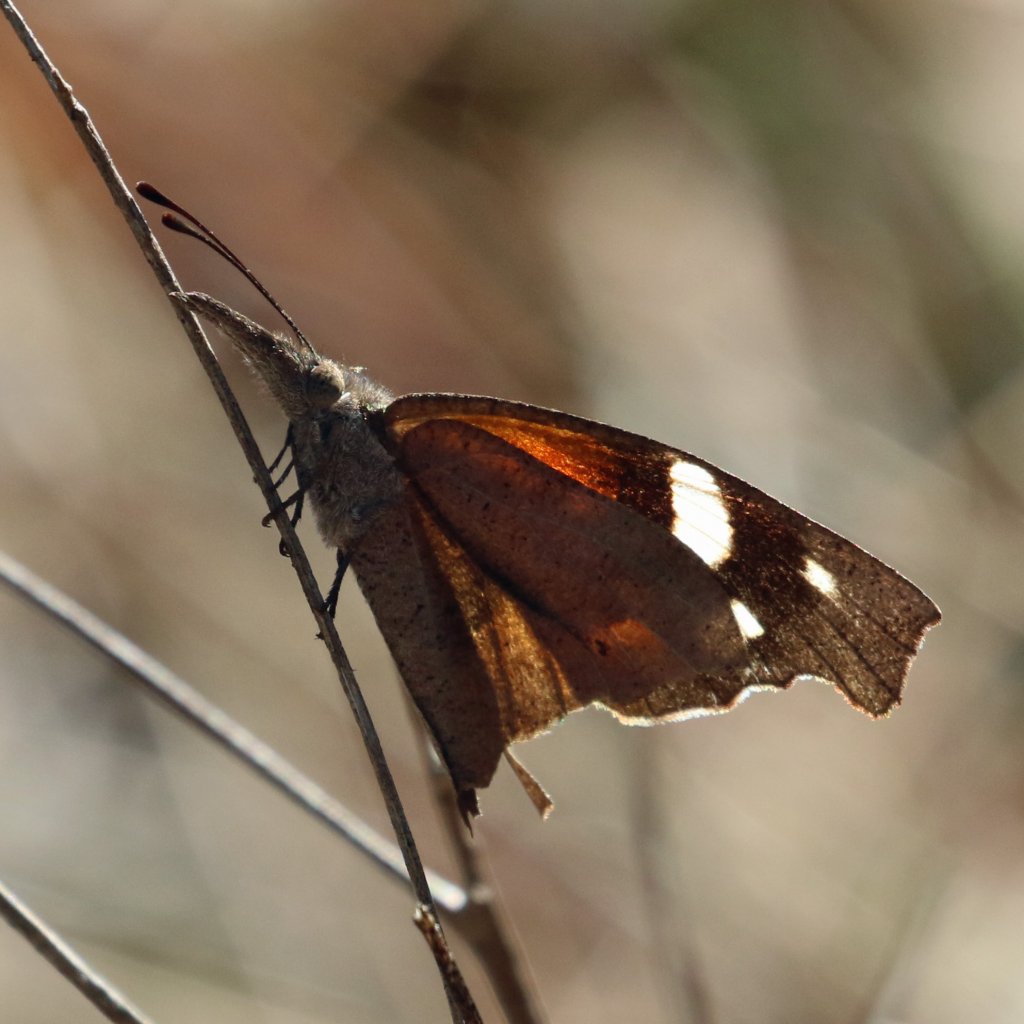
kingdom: Animalia
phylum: Arthropoda
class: Insecta
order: Lepidoptera
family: Nymphalidae
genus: Libytheana
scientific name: Libytheana carinenta
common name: American Snout
